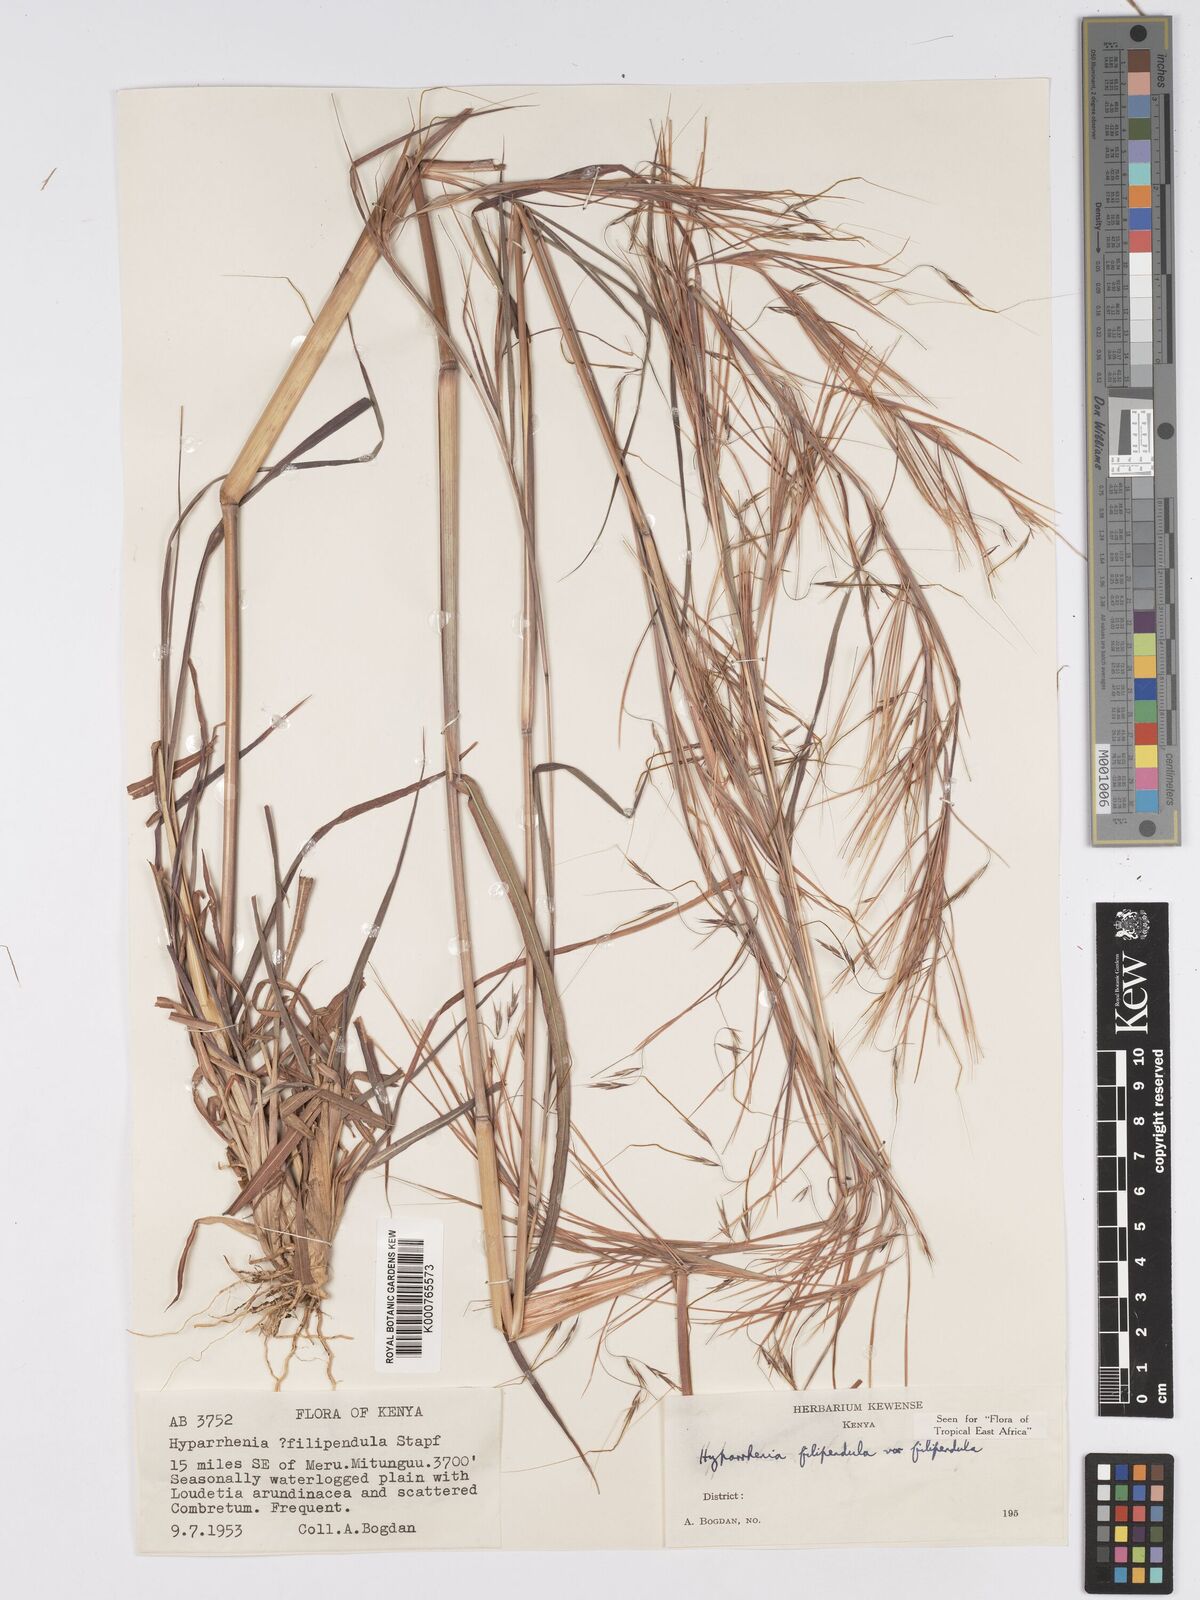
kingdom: Plantae
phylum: Tracheophyta
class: Liliopsida
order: Poales
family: Poaceae
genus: Hyparrhenia
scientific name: Hyparrhenia filipendula
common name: Tambookie grass
